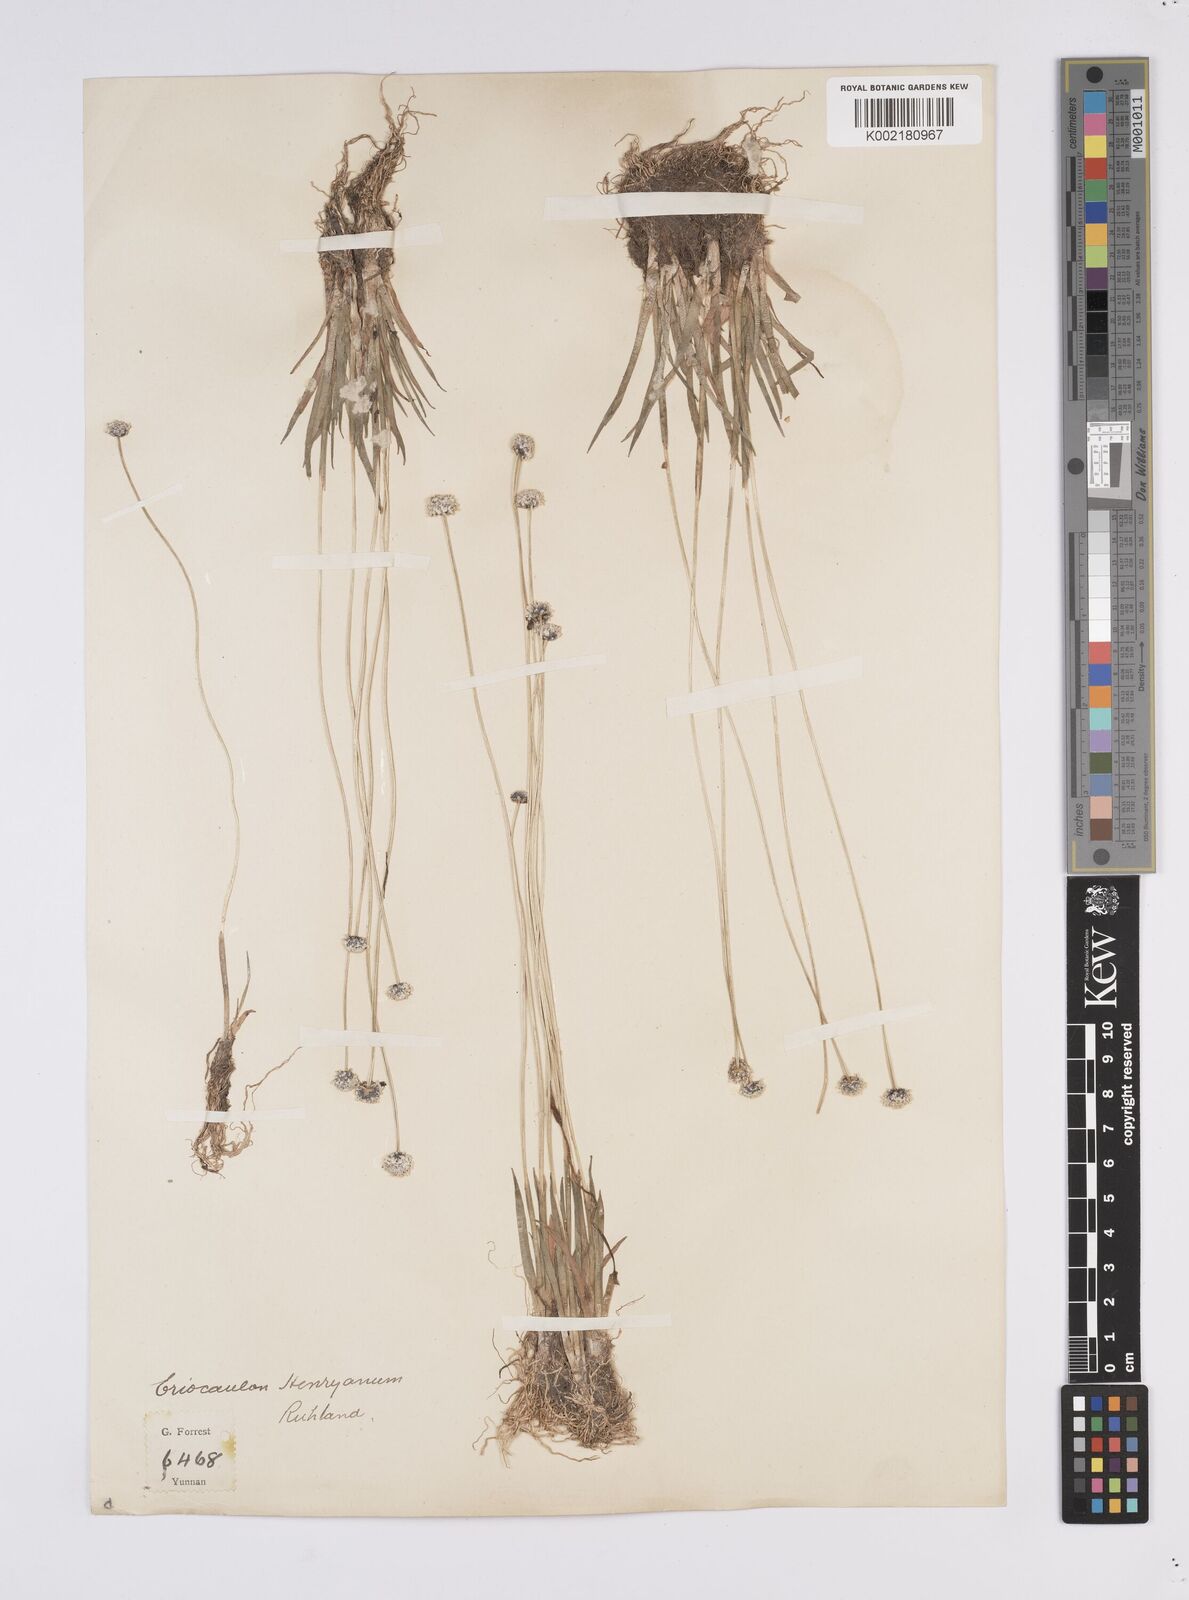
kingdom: Plantae
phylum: Tracheophyta
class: Liliopsida
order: Poales
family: Eriocaulaceae
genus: Eriocaulon
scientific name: Eriocaulon henryanum
